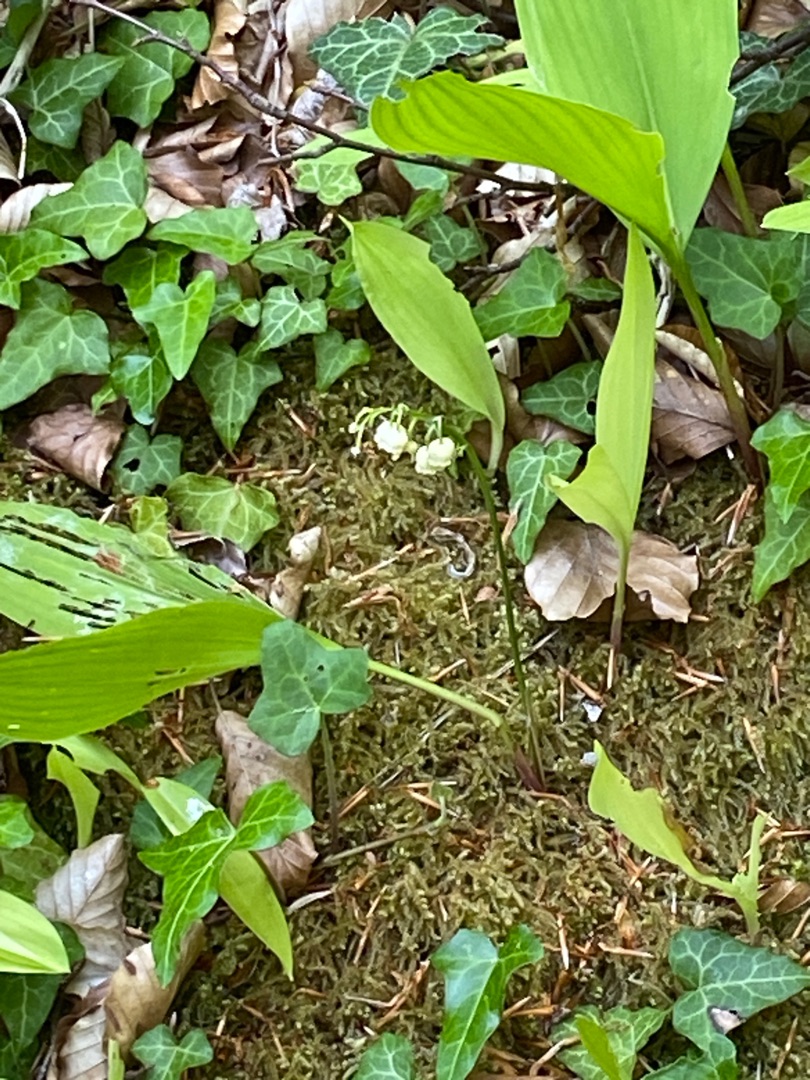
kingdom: Plantae
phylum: Tracheophyta
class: Liliopsida
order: Asparagales
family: Asparagaceae
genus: Convallaria
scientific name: Convallaria majalis
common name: Liljekonval
